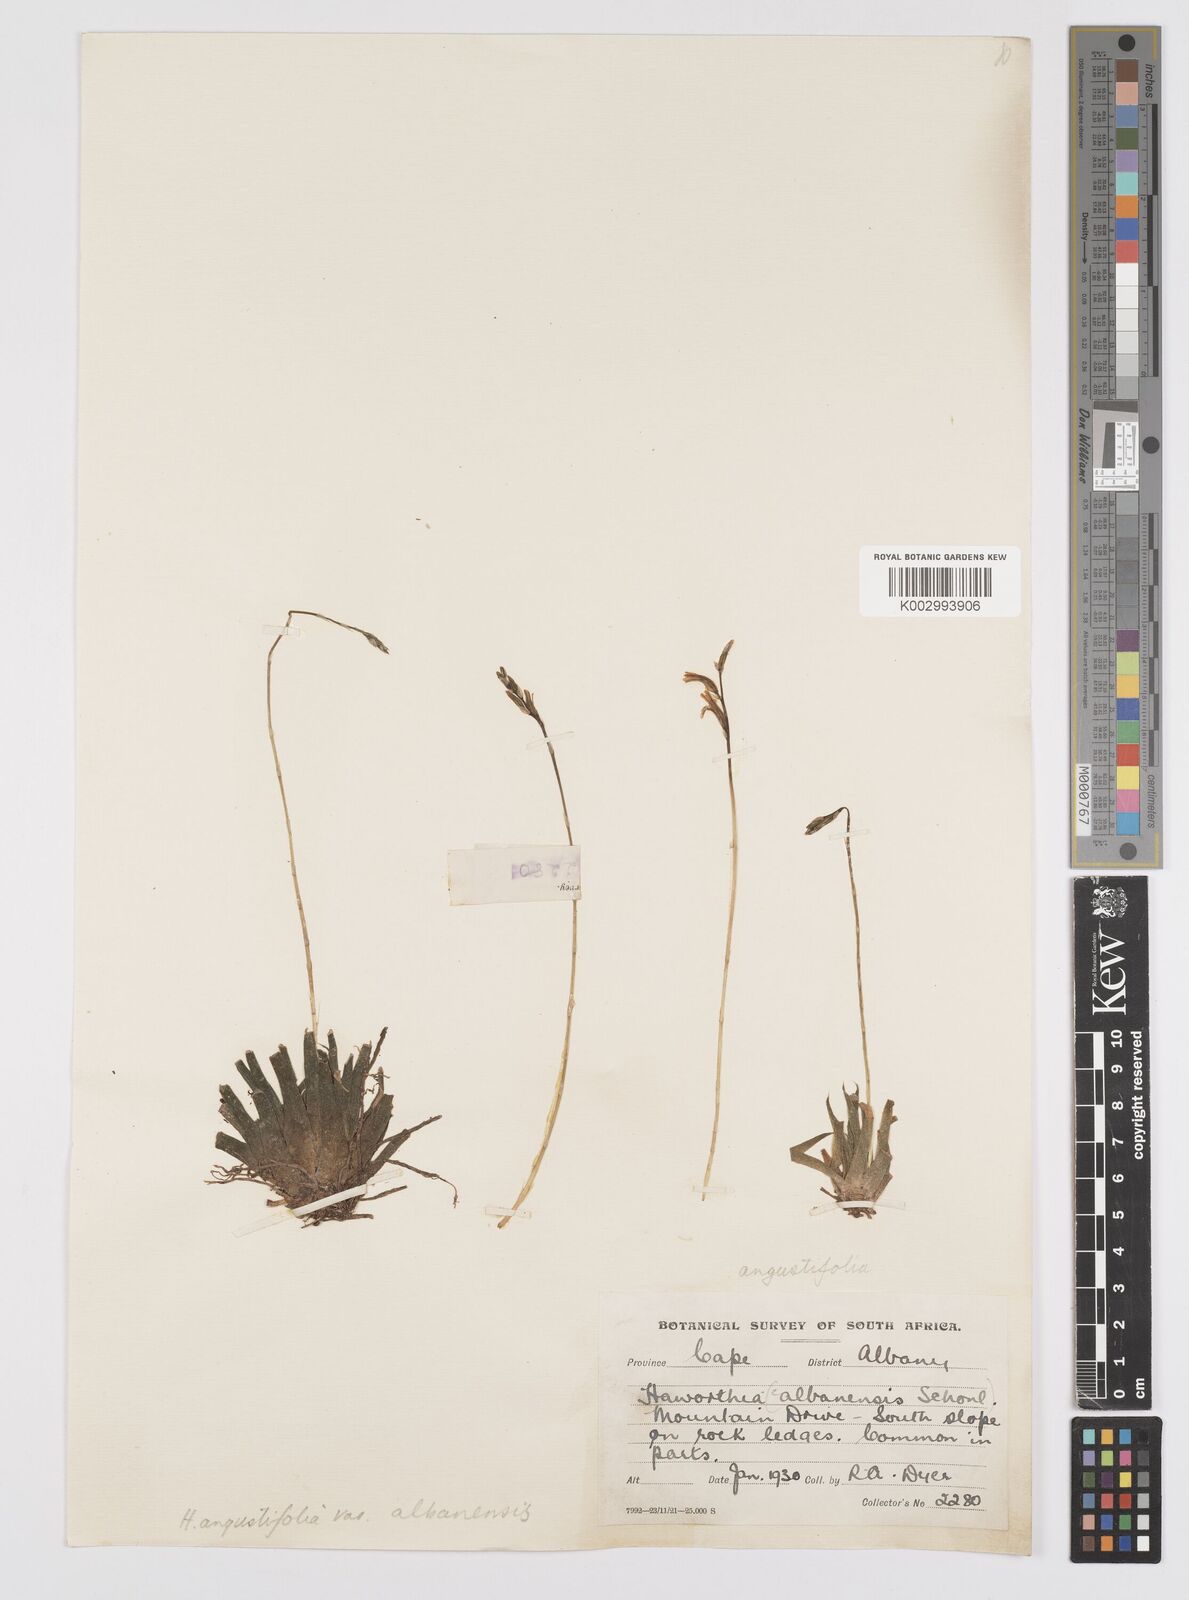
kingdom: Plantae
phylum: Tracheophyta
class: Liliopsida
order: Asparagales
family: Asphodelaceae
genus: Haworthia
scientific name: Haworthia
